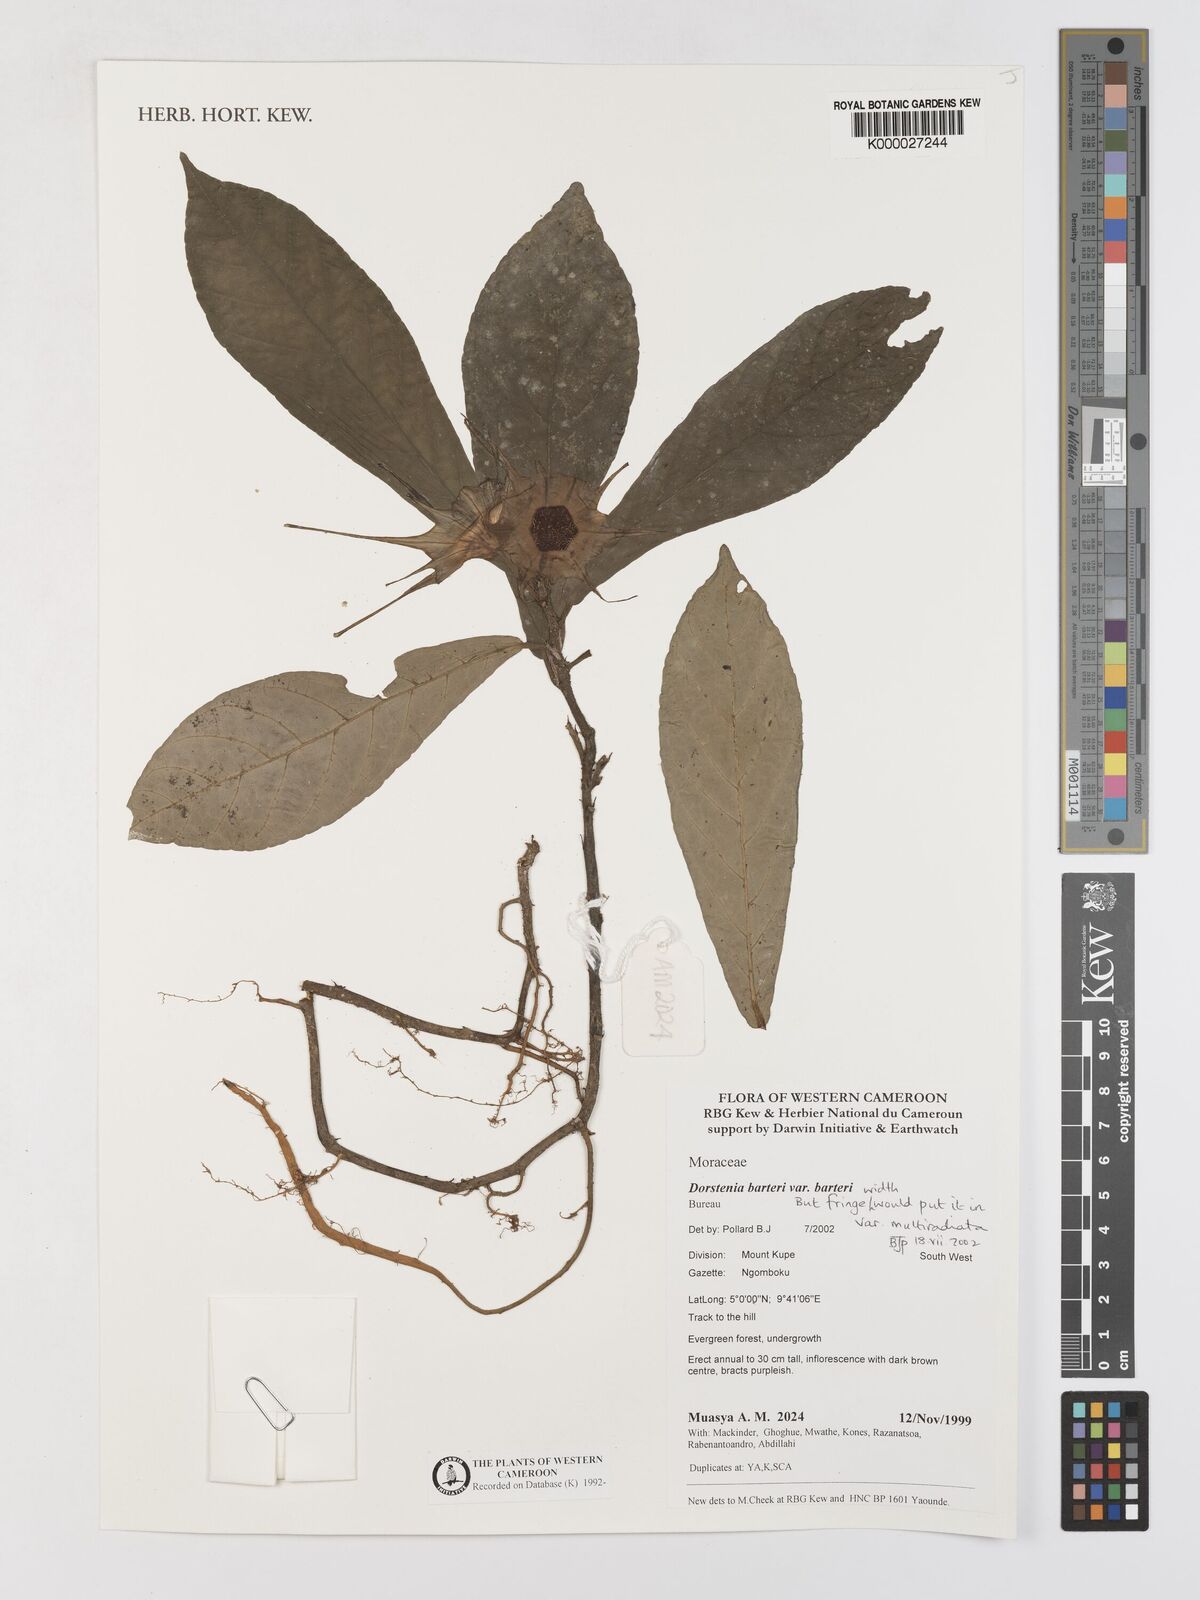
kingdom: Plantae
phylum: Tracheophyta
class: Magnoliopsida
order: Rosales
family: Moraceae
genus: Dorstenia
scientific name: Dorstenia barteri
